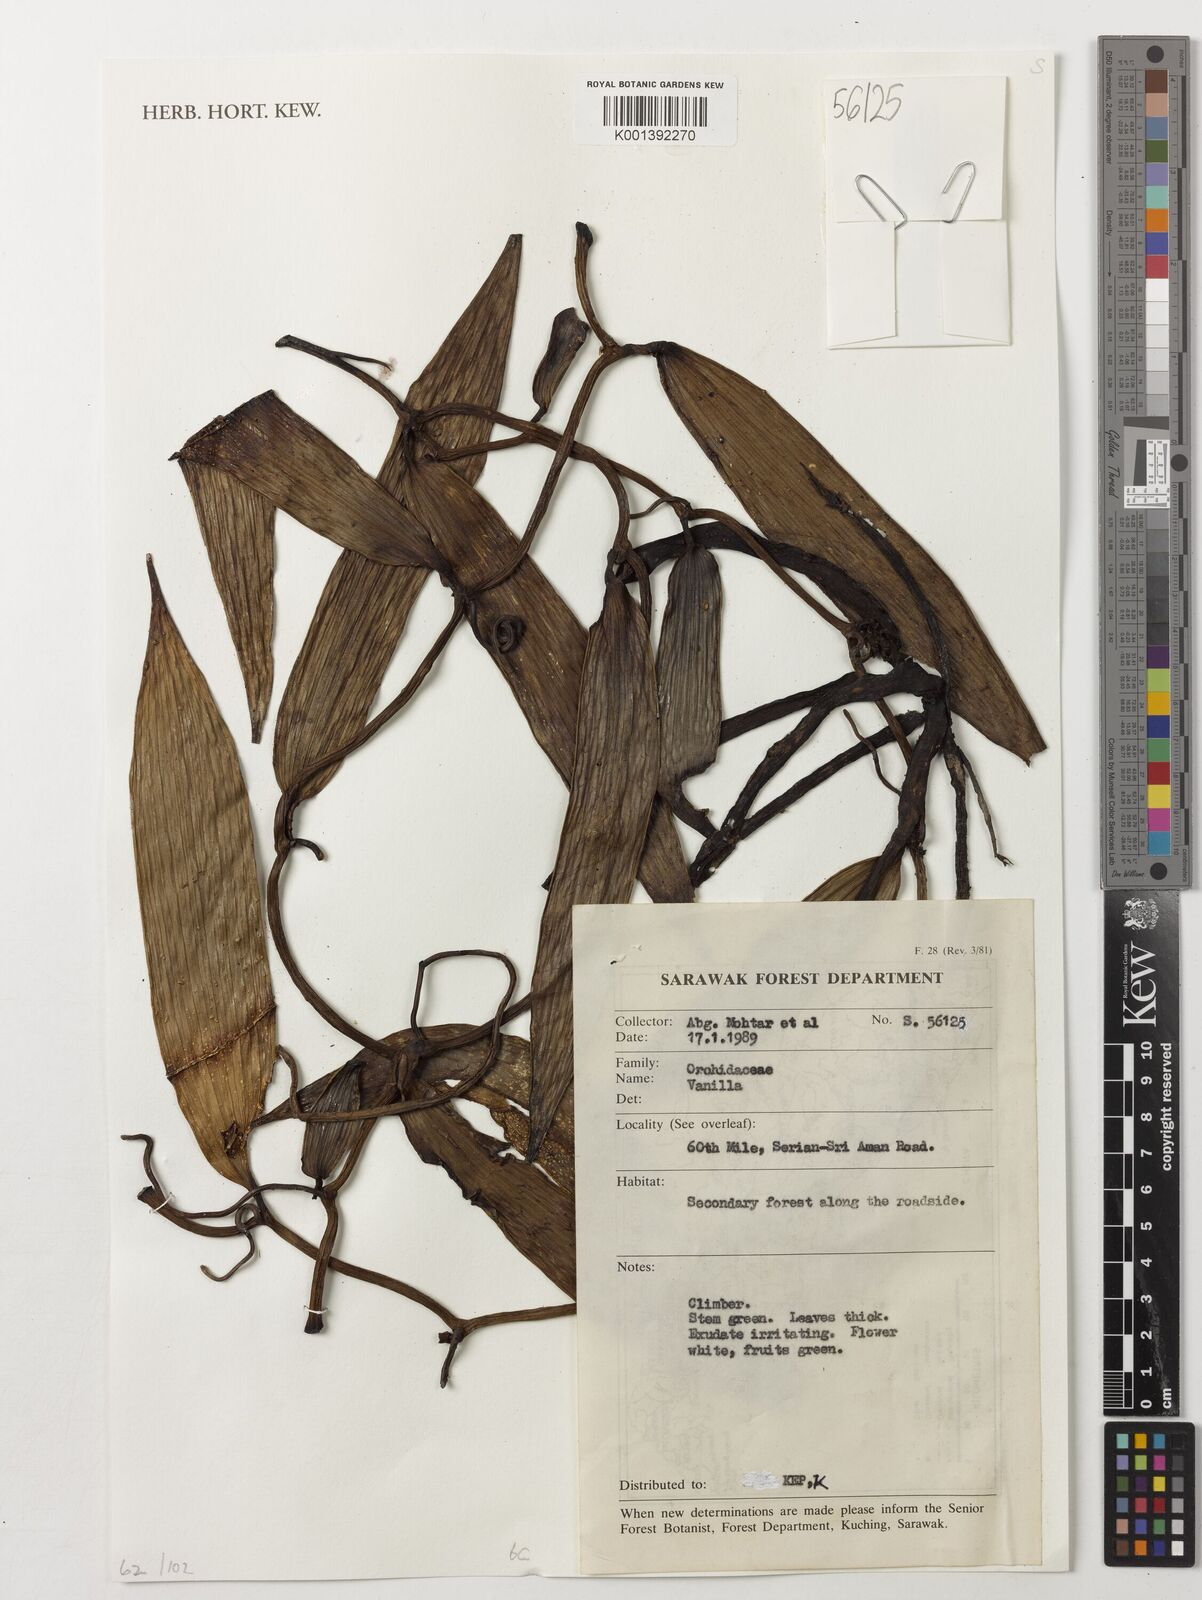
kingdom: Plantae
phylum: Tracheophyta
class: Liliopsida
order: Asparagales
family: Orchidaceae
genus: Vanilla
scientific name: Vanilla
